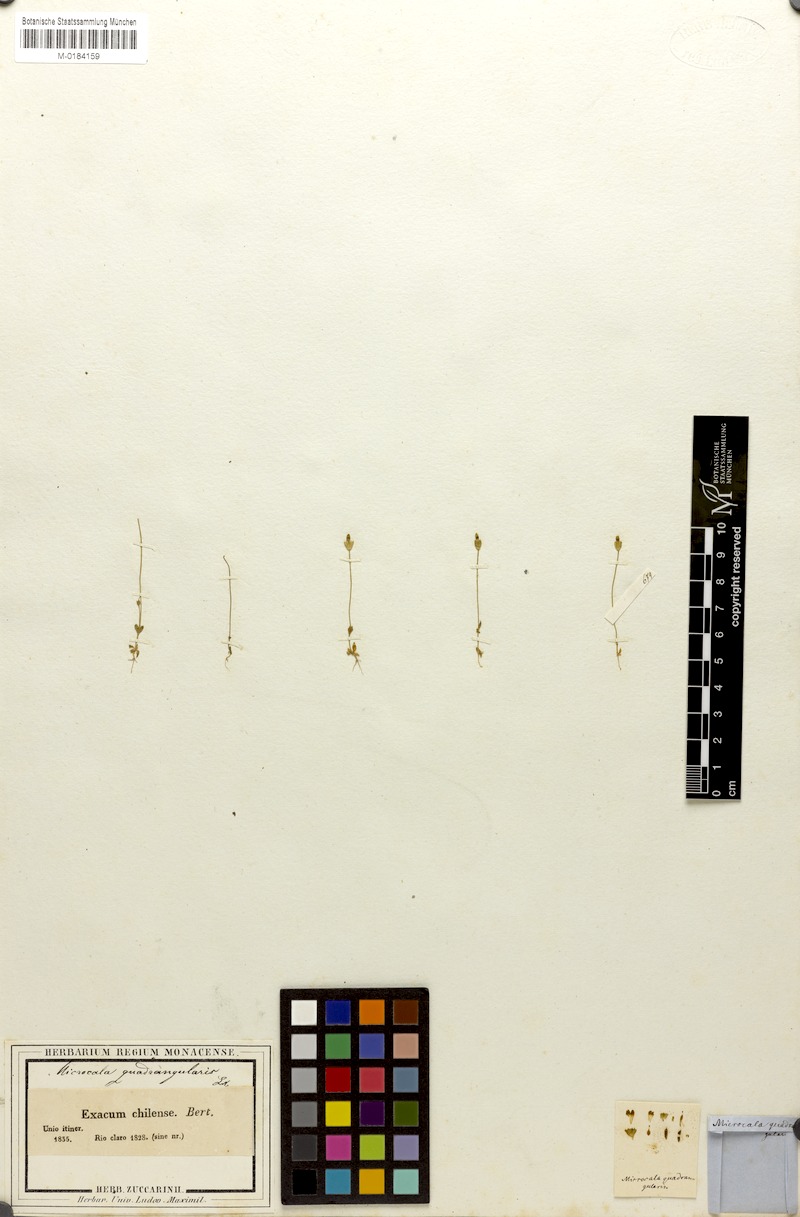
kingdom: Plantae
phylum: Tracheophyta
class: Magnoliopsida
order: Gentianales
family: Gentianaceae
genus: Microcala
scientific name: Microcala quadrangularis
